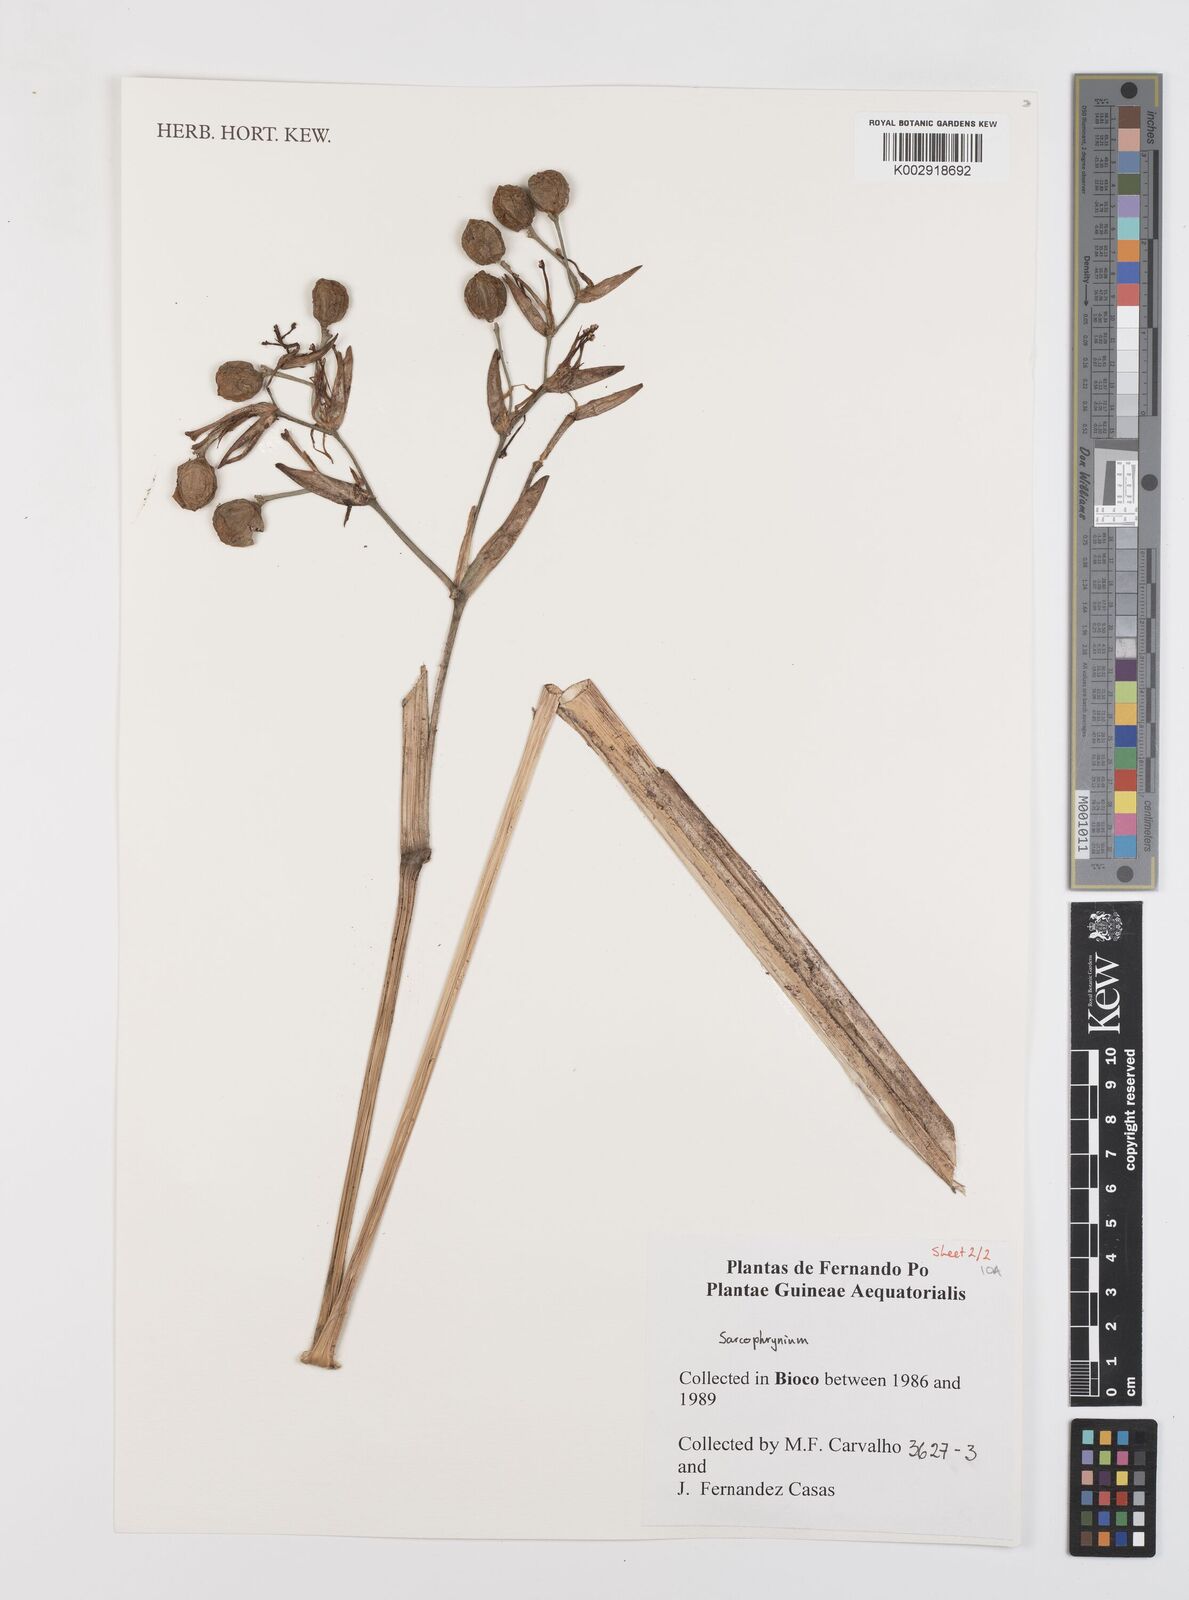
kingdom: Plantae
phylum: Tracheophyta
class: Liliopsida
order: Zingiberales
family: Marantaceae
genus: Sarcophrynium
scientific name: Sarcophrynium
